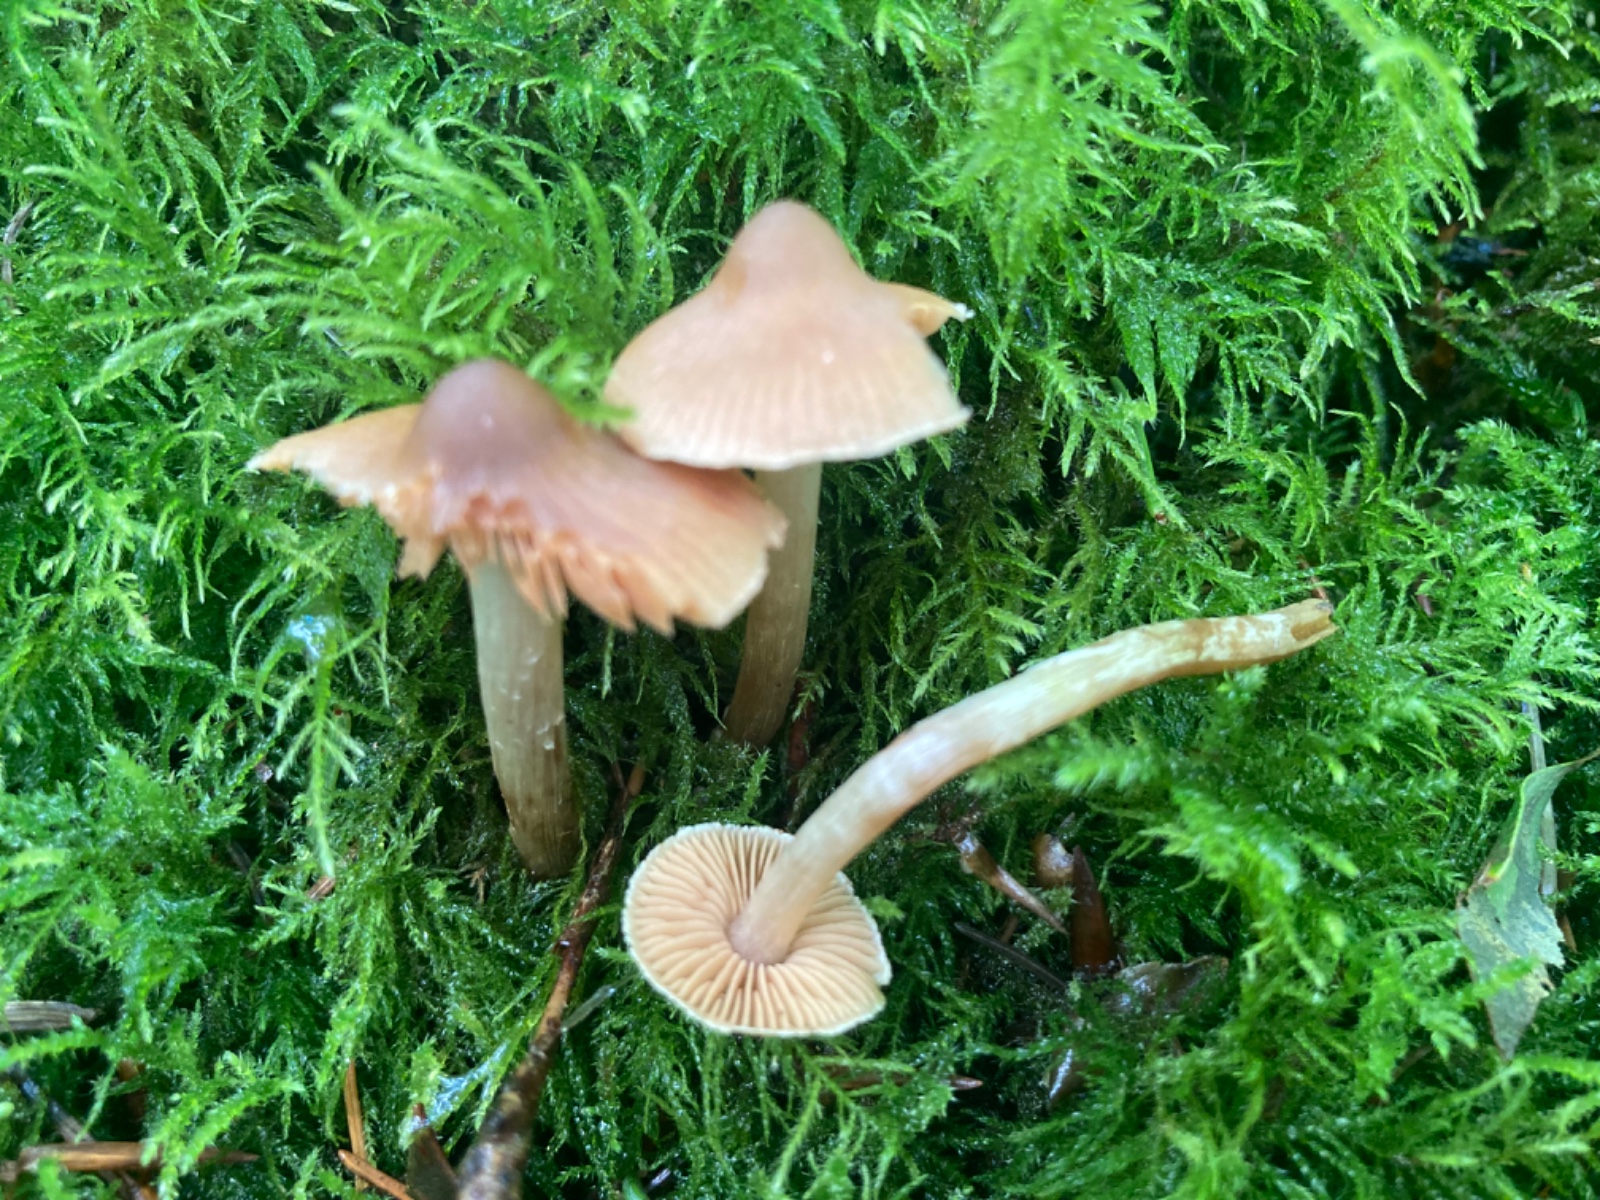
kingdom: Fungi
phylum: Basidiomycota
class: Agaricomycetes
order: Agaricales
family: Cortinariaceae
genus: Cortinarius
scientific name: Cortinarius
